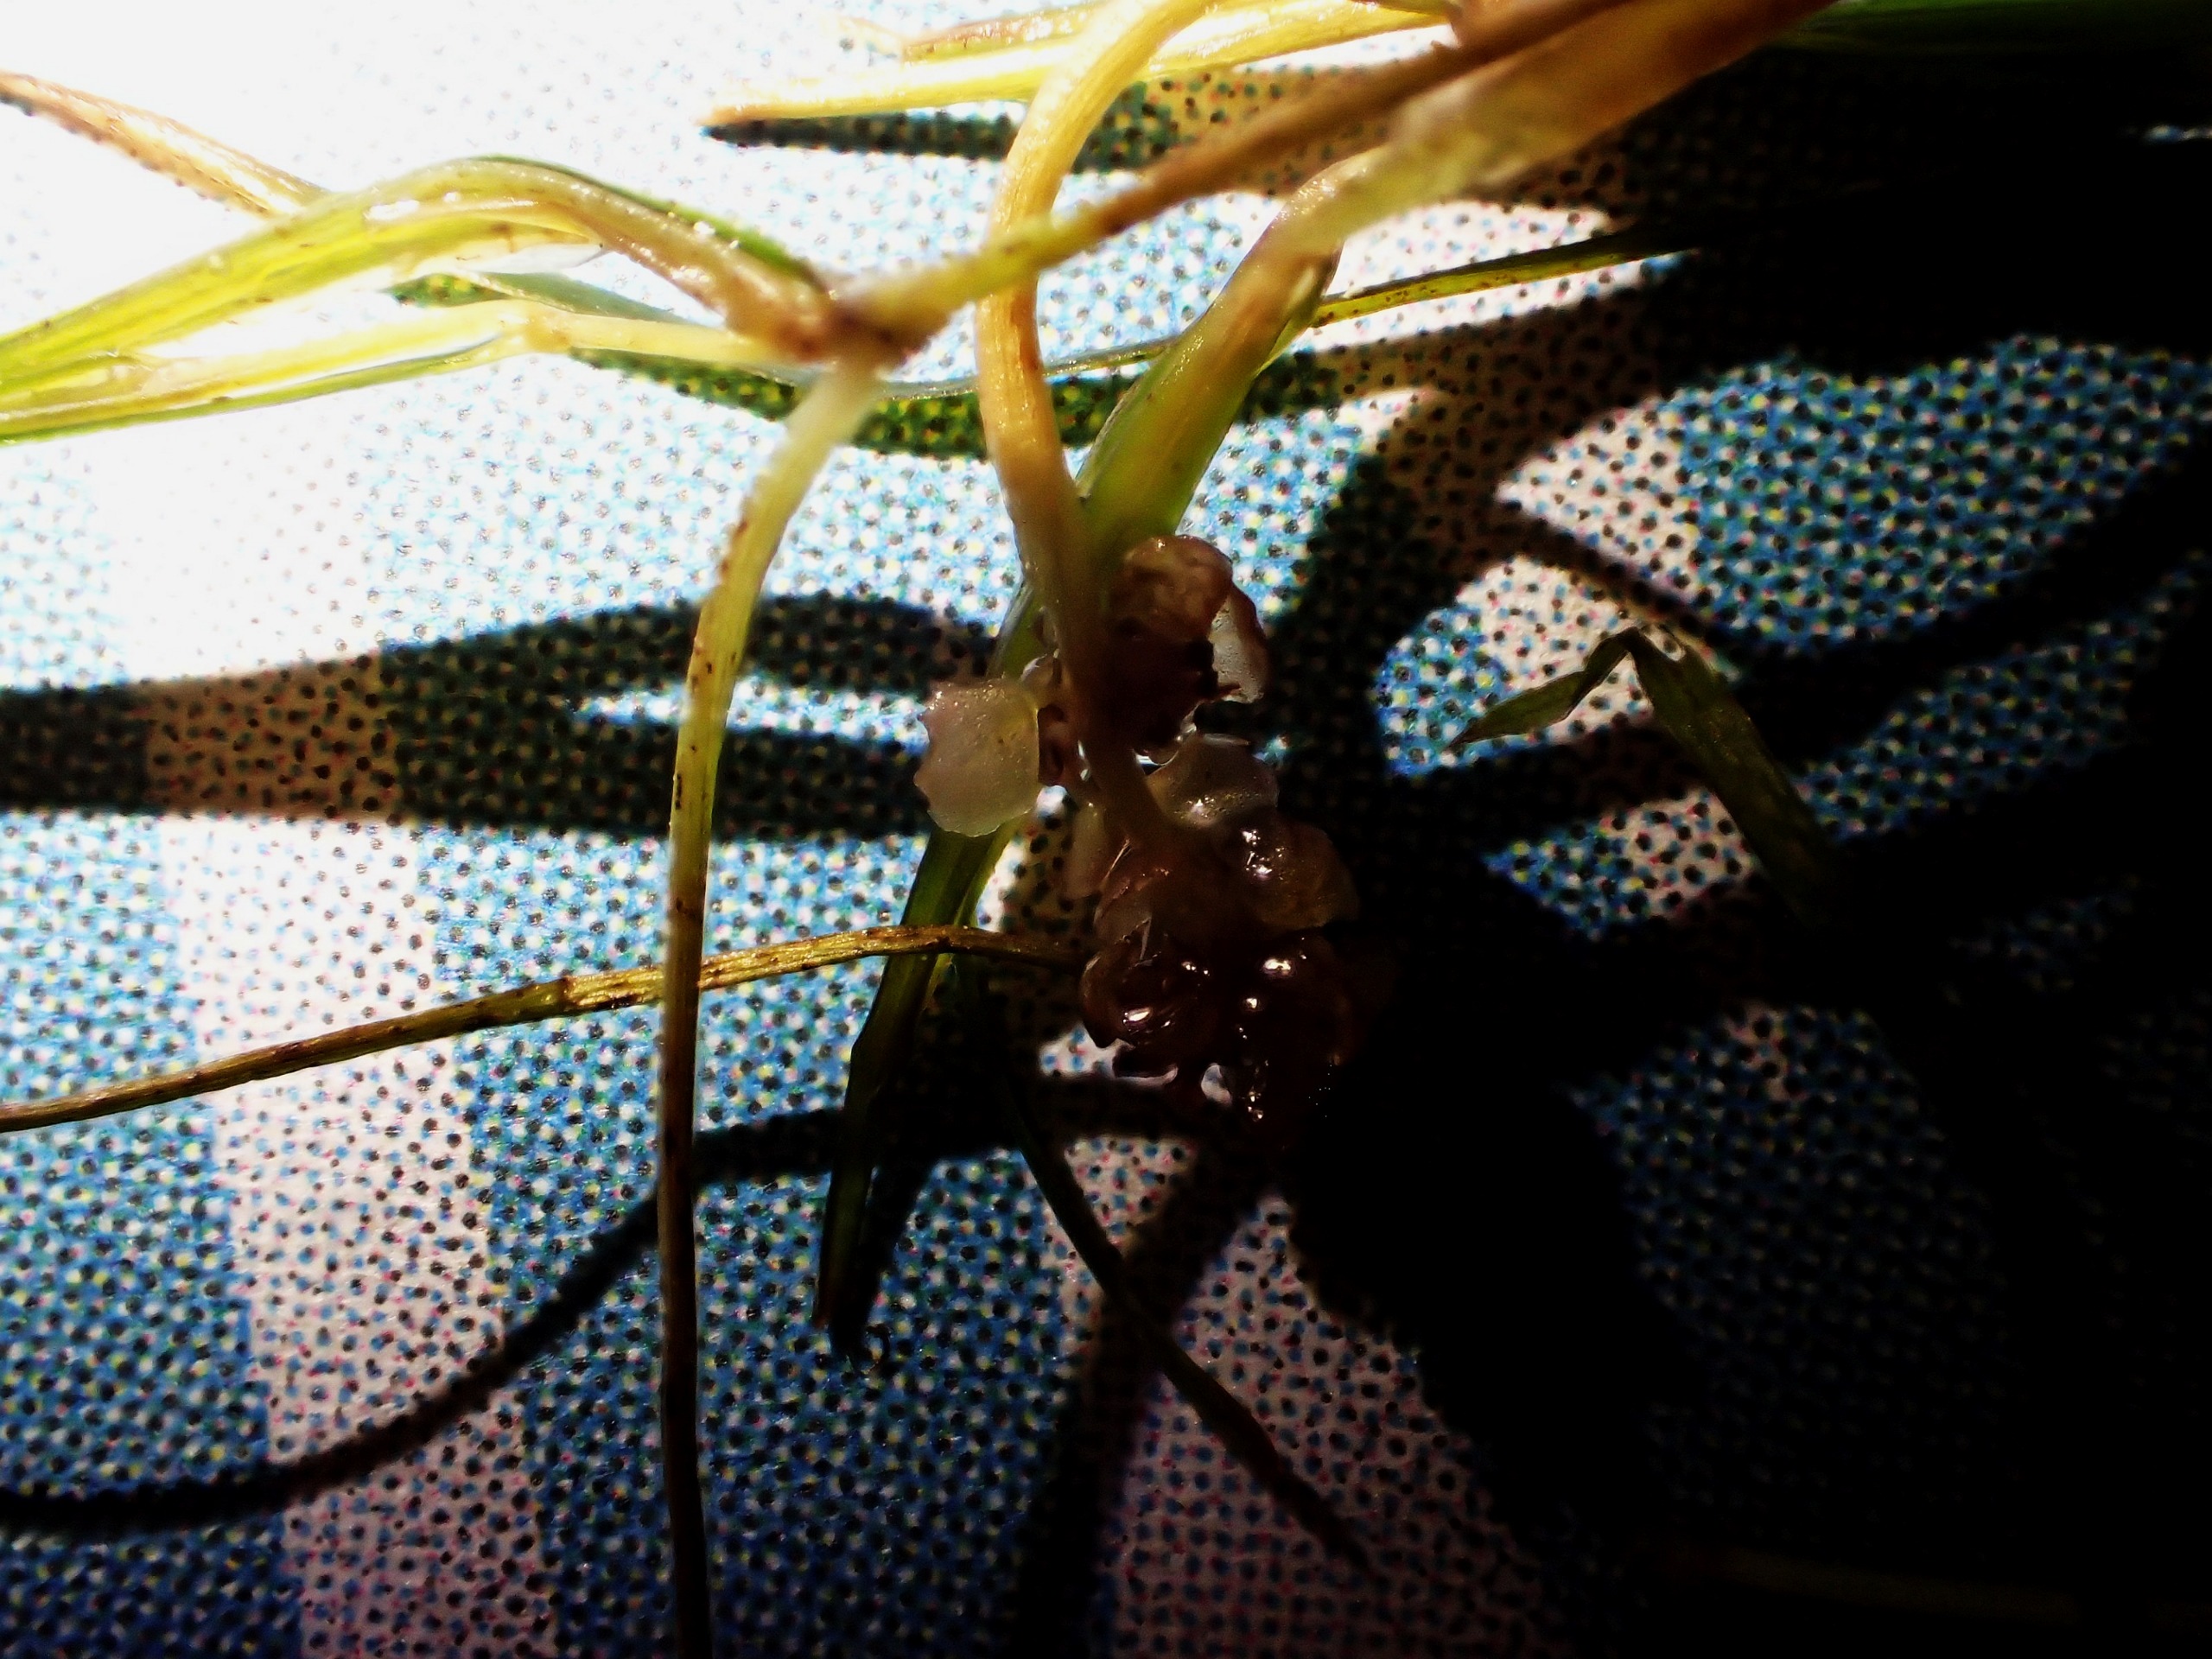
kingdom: Plantae
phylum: Tracheophyta
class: Liliopsida
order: Alismatales
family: Potamogetonaceae
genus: Potamogeton
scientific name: Potamogeton pusillus
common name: Spinkel vandaks
